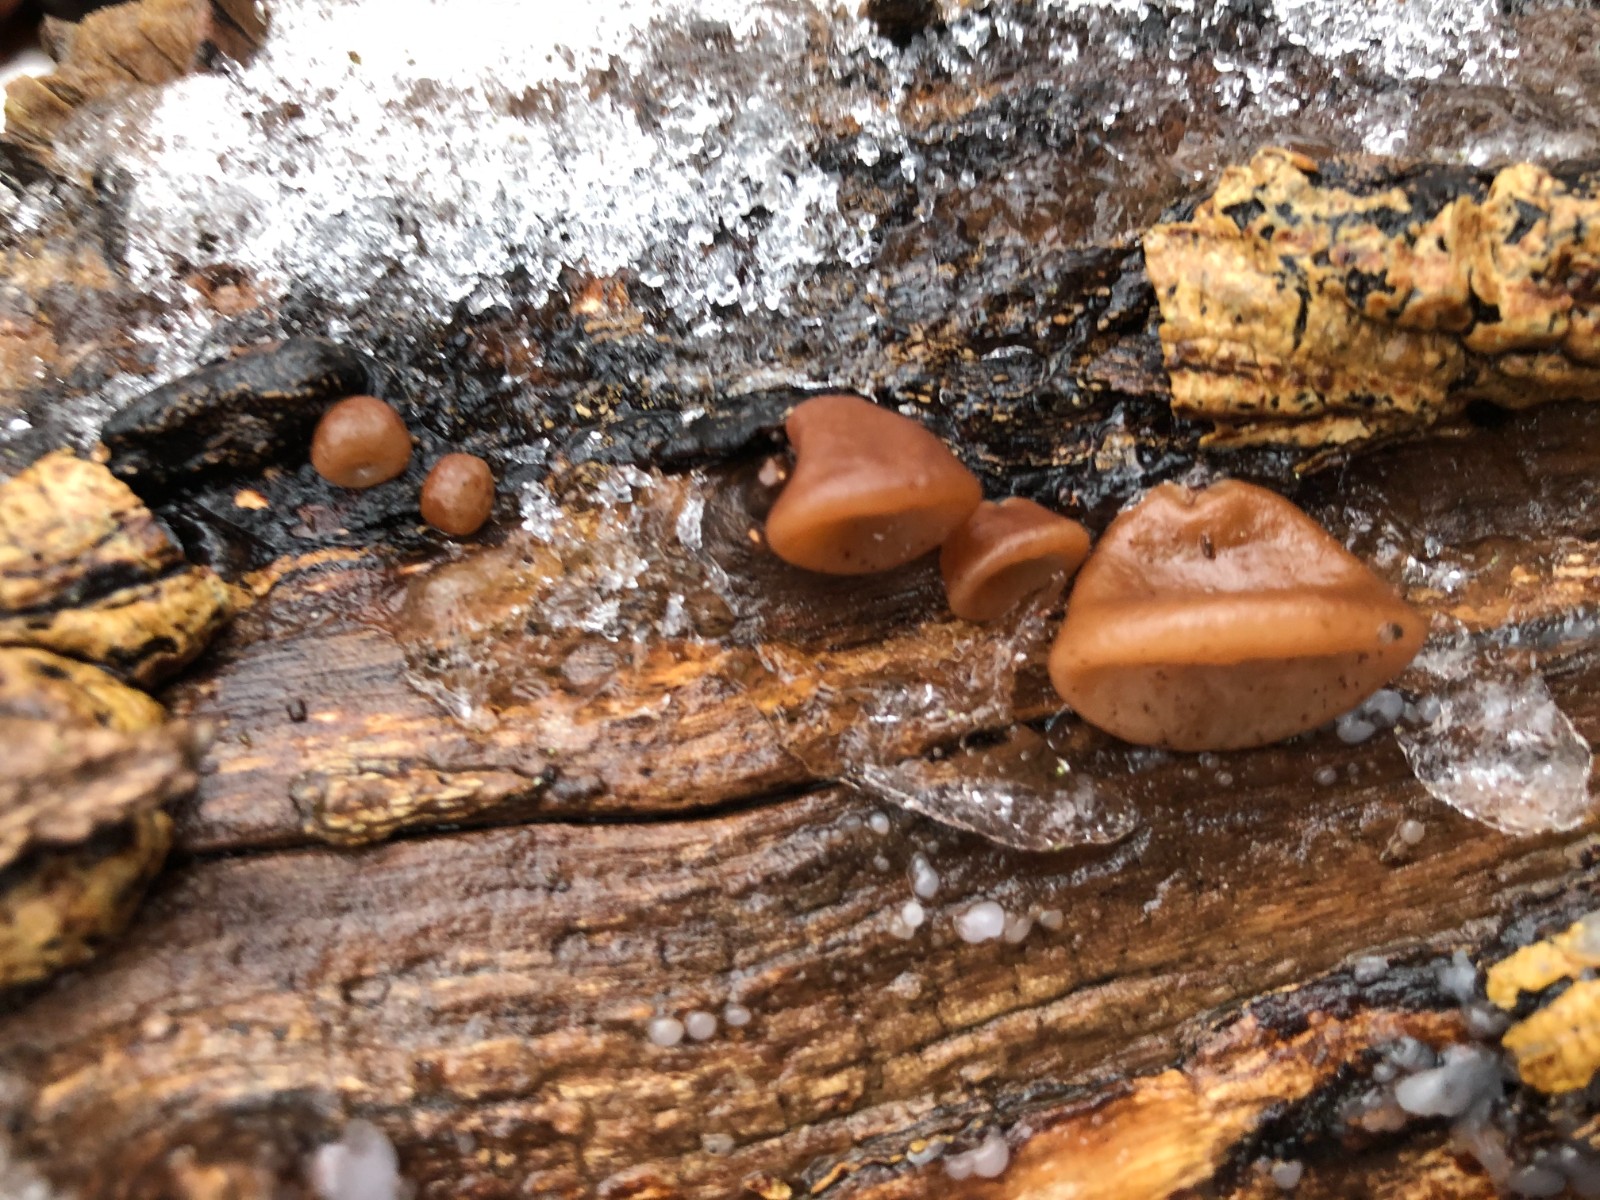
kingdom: Fungi
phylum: Basidiomycota
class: Agaricomycetes
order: Auriculariales
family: Auriculariaceae
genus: Auricularia
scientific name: Auricularia auricula-judae
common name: almindelig judasøre
